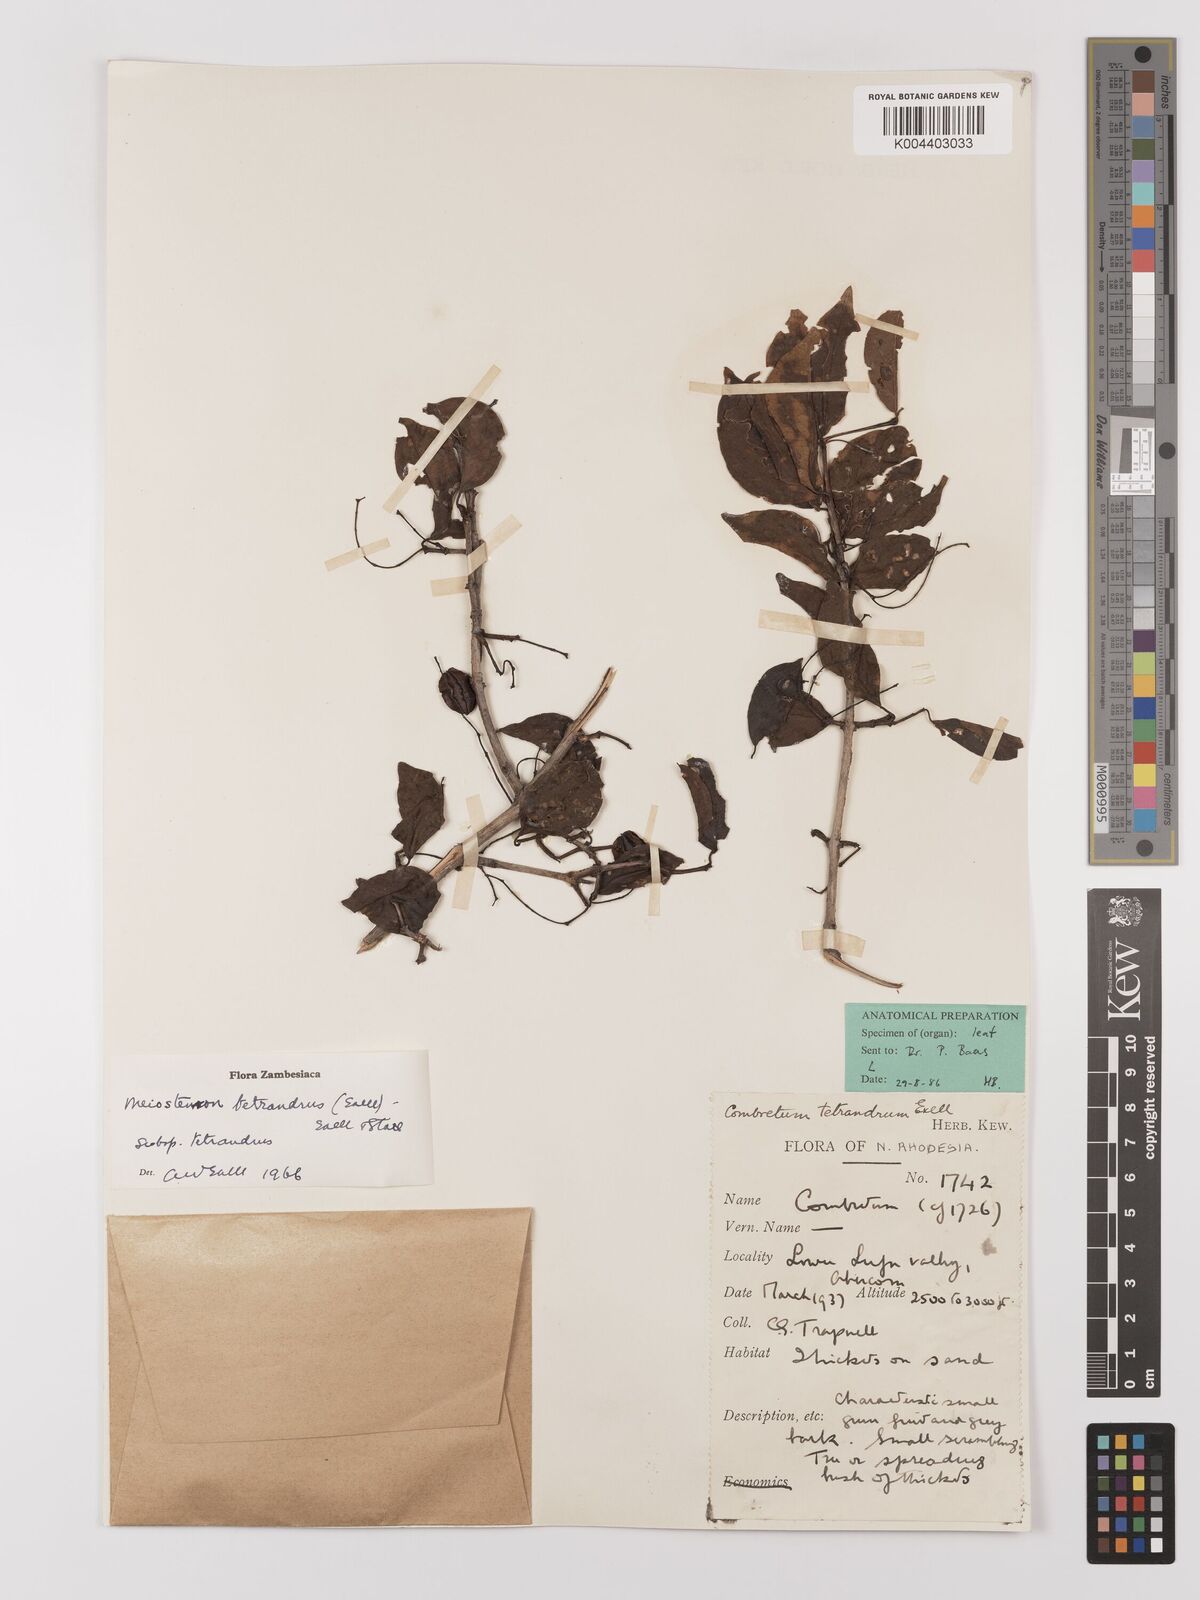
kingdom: Plantae
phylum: Tracheophyta
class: Magnoliopsida
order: Myrtales
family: Combretaceae
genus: Combretum
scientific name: Combretum tetrandrum
